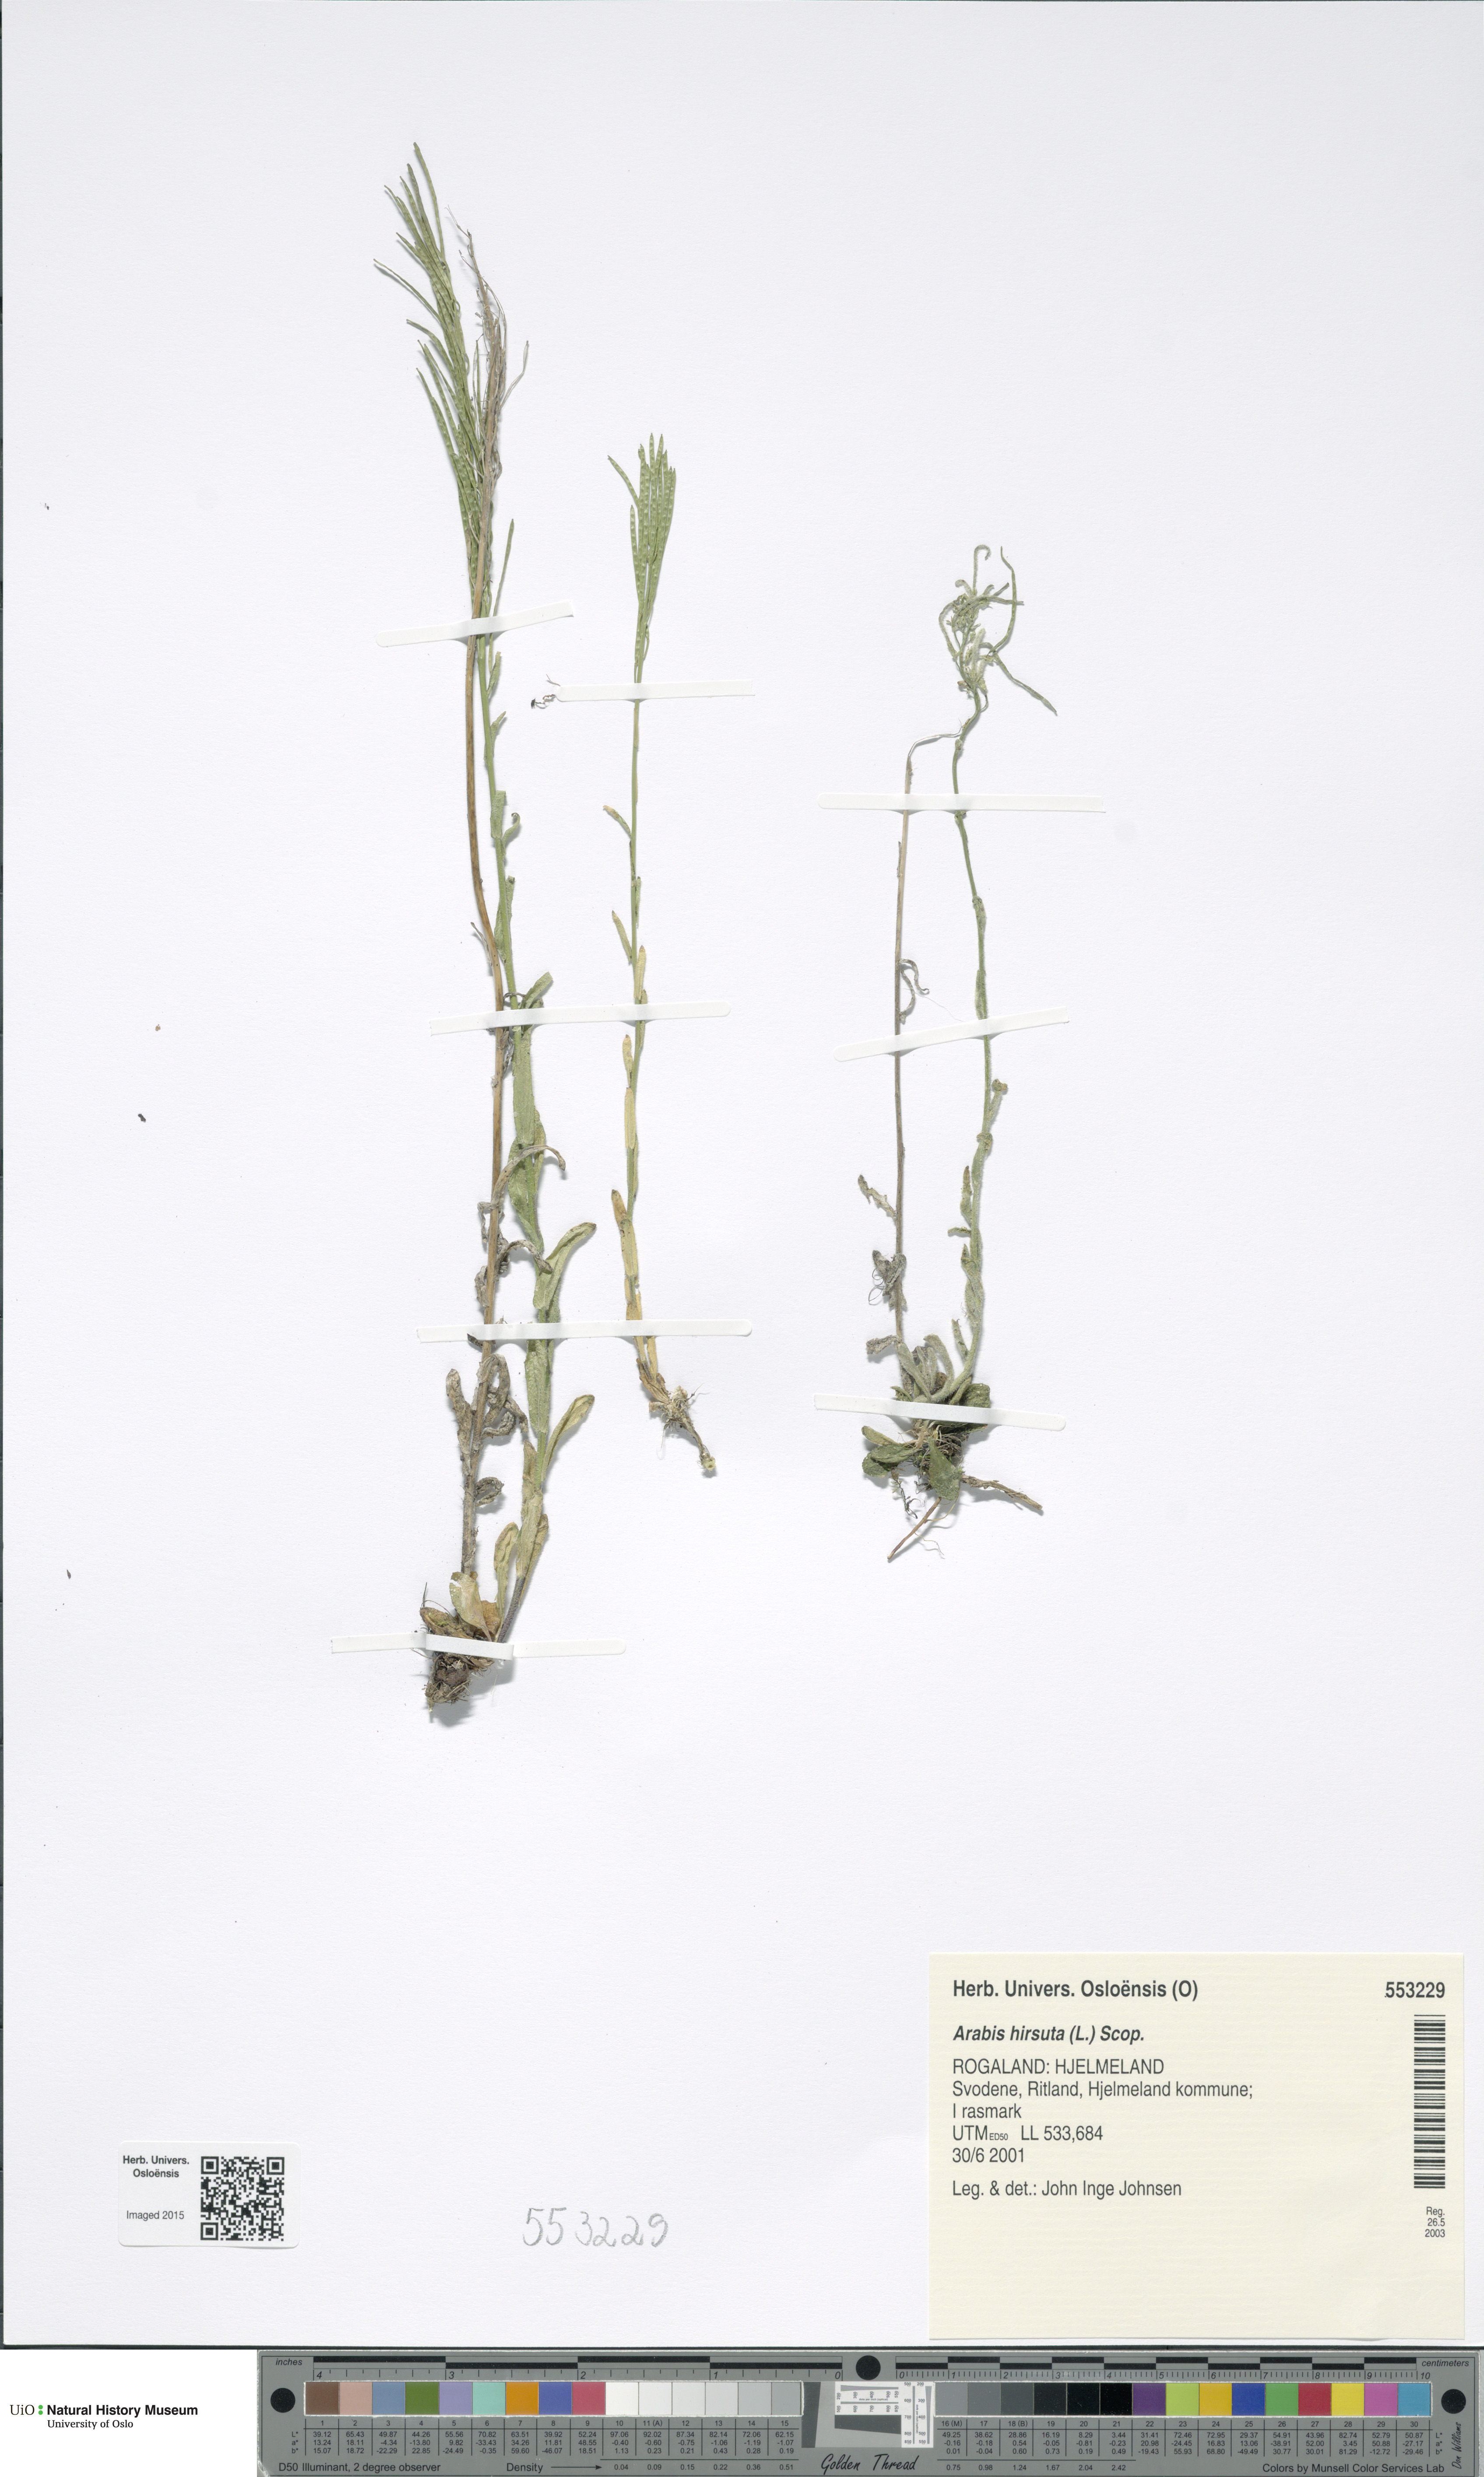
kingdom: Plantae
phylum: Tracheophyta
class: Magnoliopsida
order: Brassicales
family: Brassicaceae
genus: Arabis
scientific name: Arabis hirsuta
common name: Hairy rock-cress
